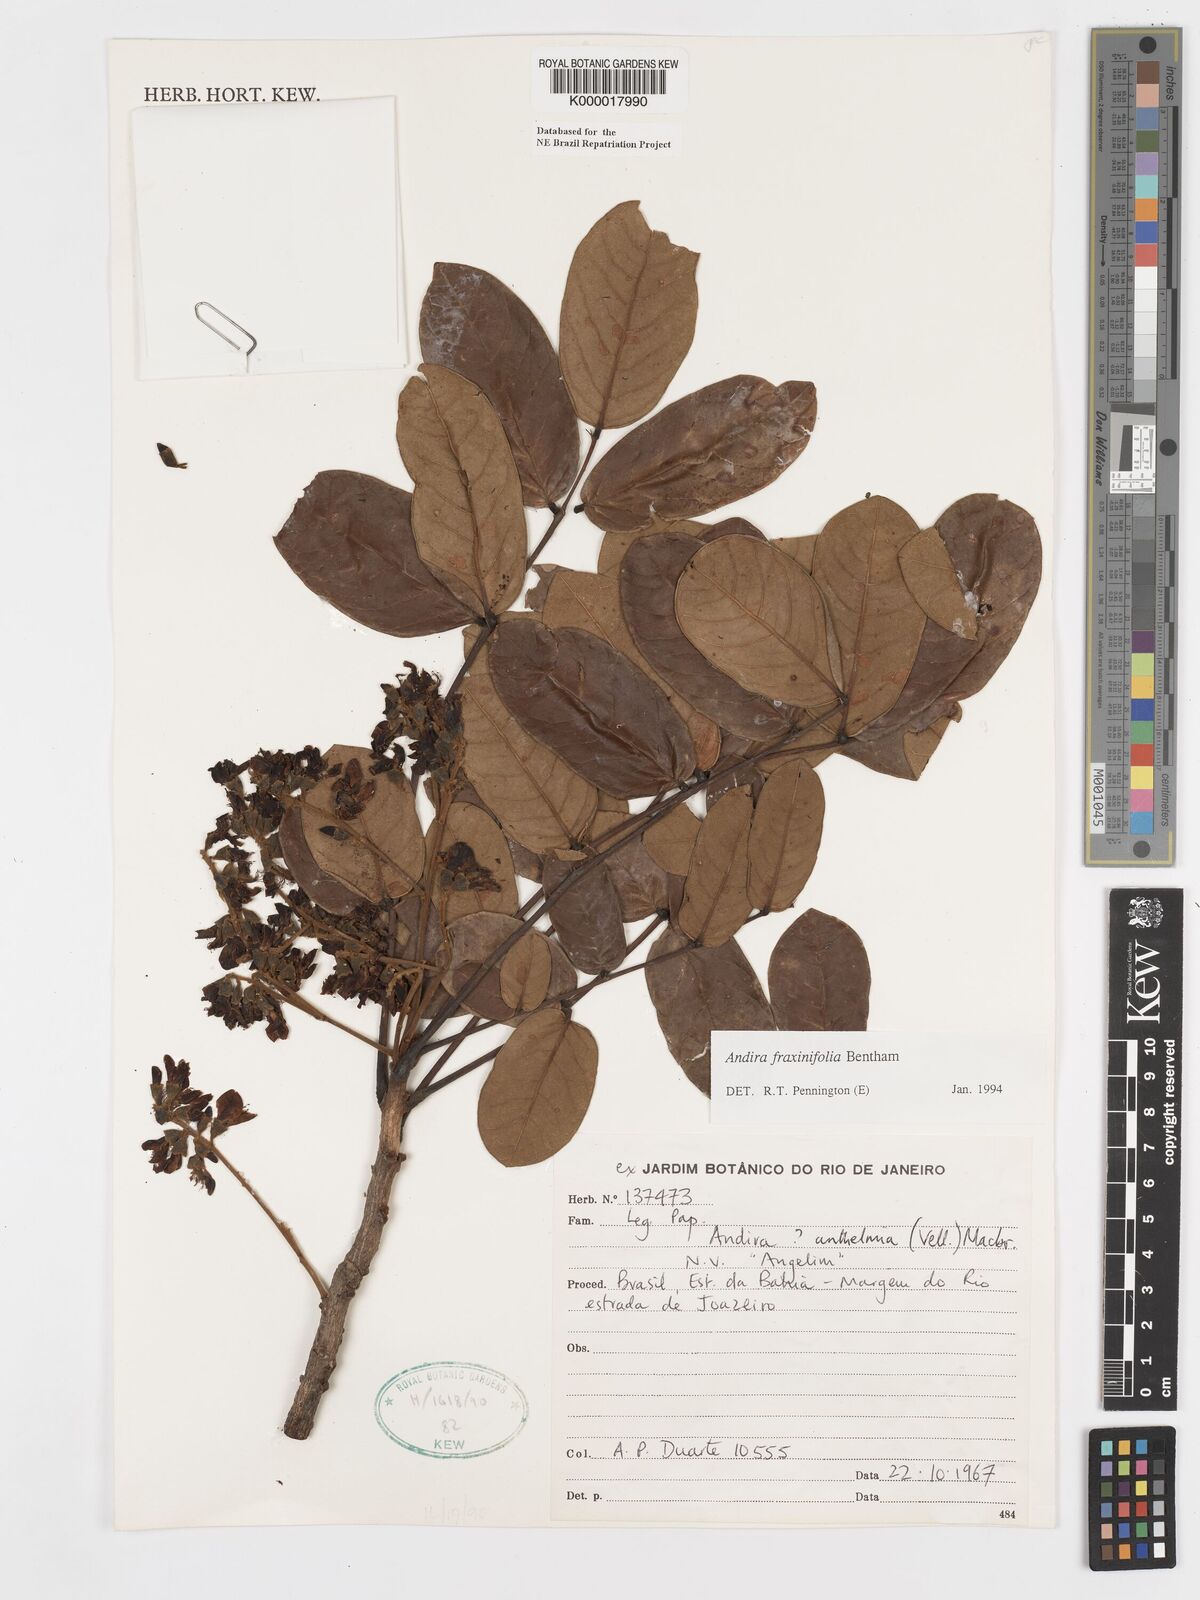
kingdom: Plantae
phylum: Tracheophyta
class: Magnoliopsida
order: Fabales
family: Fabaceae
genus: Andira
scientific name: Andira fraxinifolia
